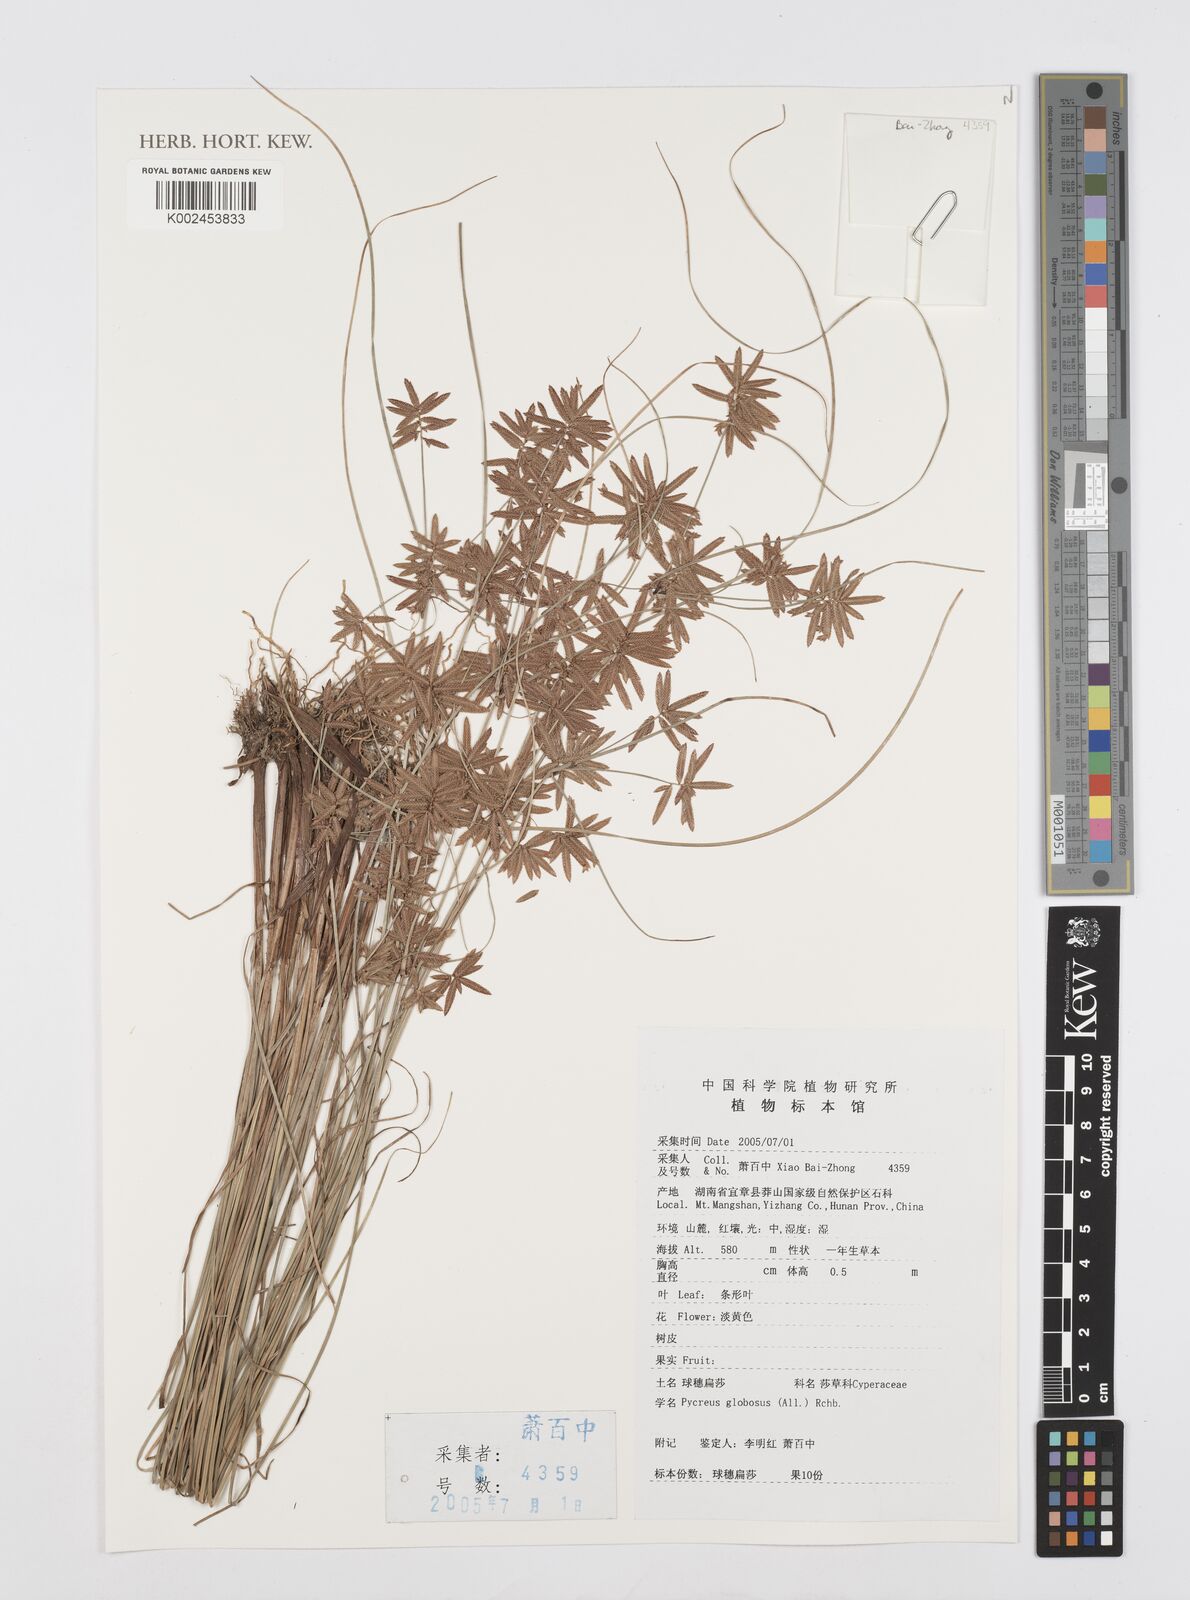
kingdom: Plantae
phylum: Tracheophyta
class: Liliopsida
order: Poales
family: Cyperaceae
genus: Cyperus
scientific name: Cyperus flavidus
